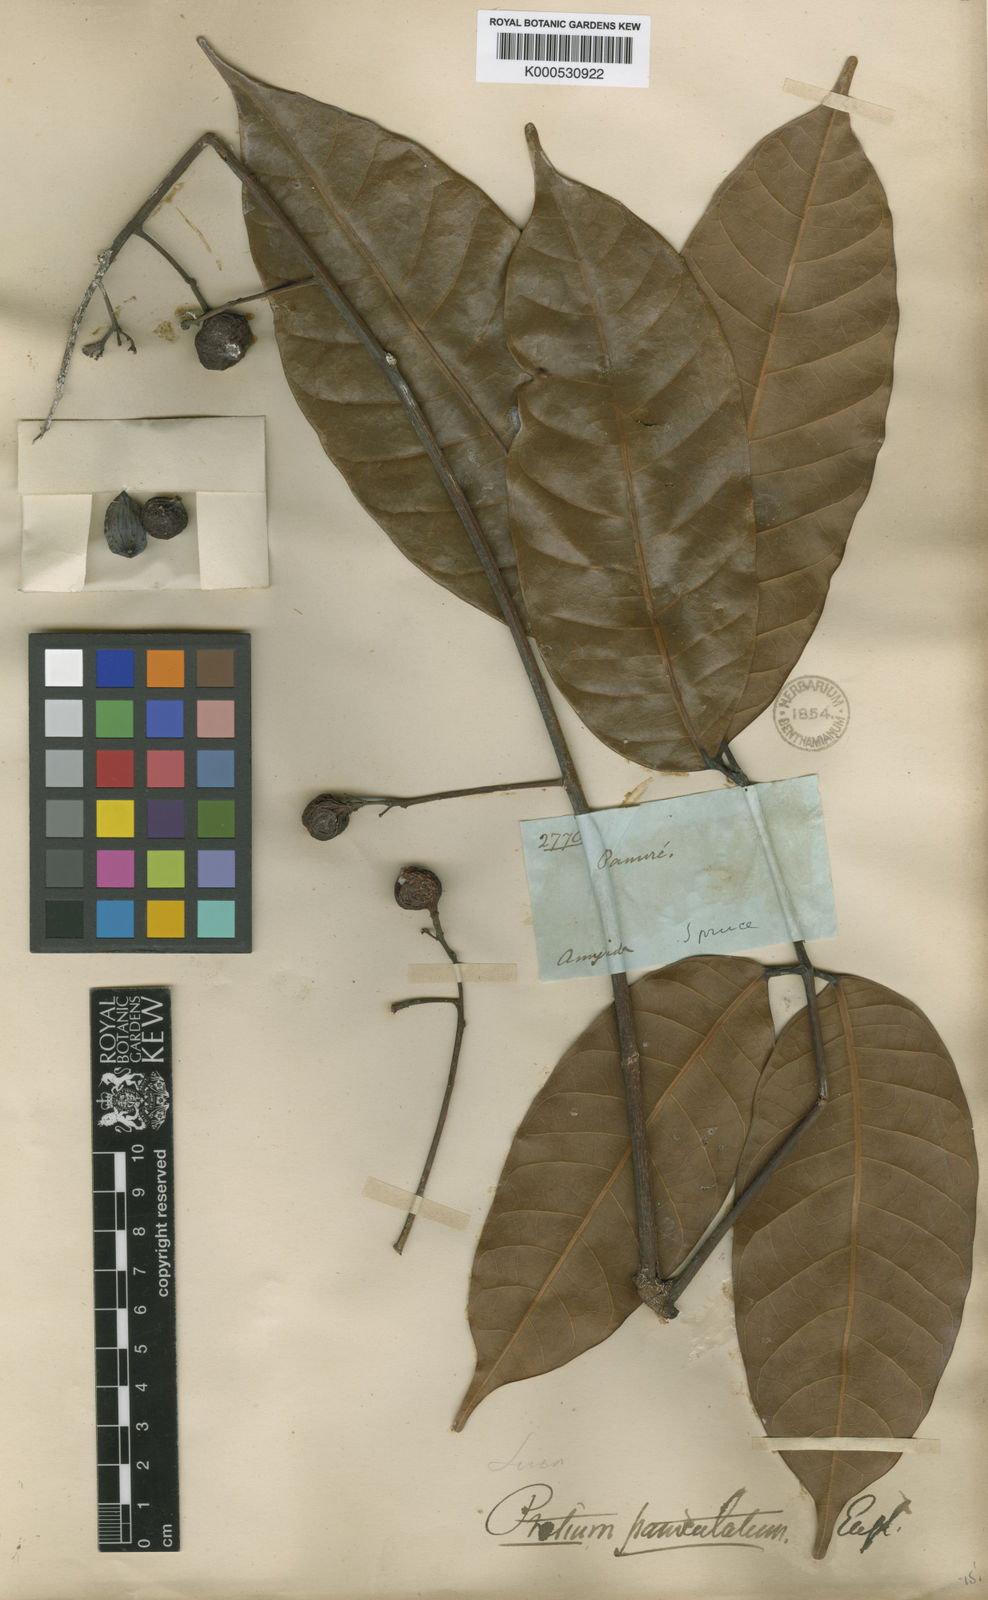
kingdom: Plantae
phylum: Tracheophyta
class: Magnoliopsida
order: Sapindales
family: Burseraceae
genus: Protium
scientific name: Protium paniculatum
